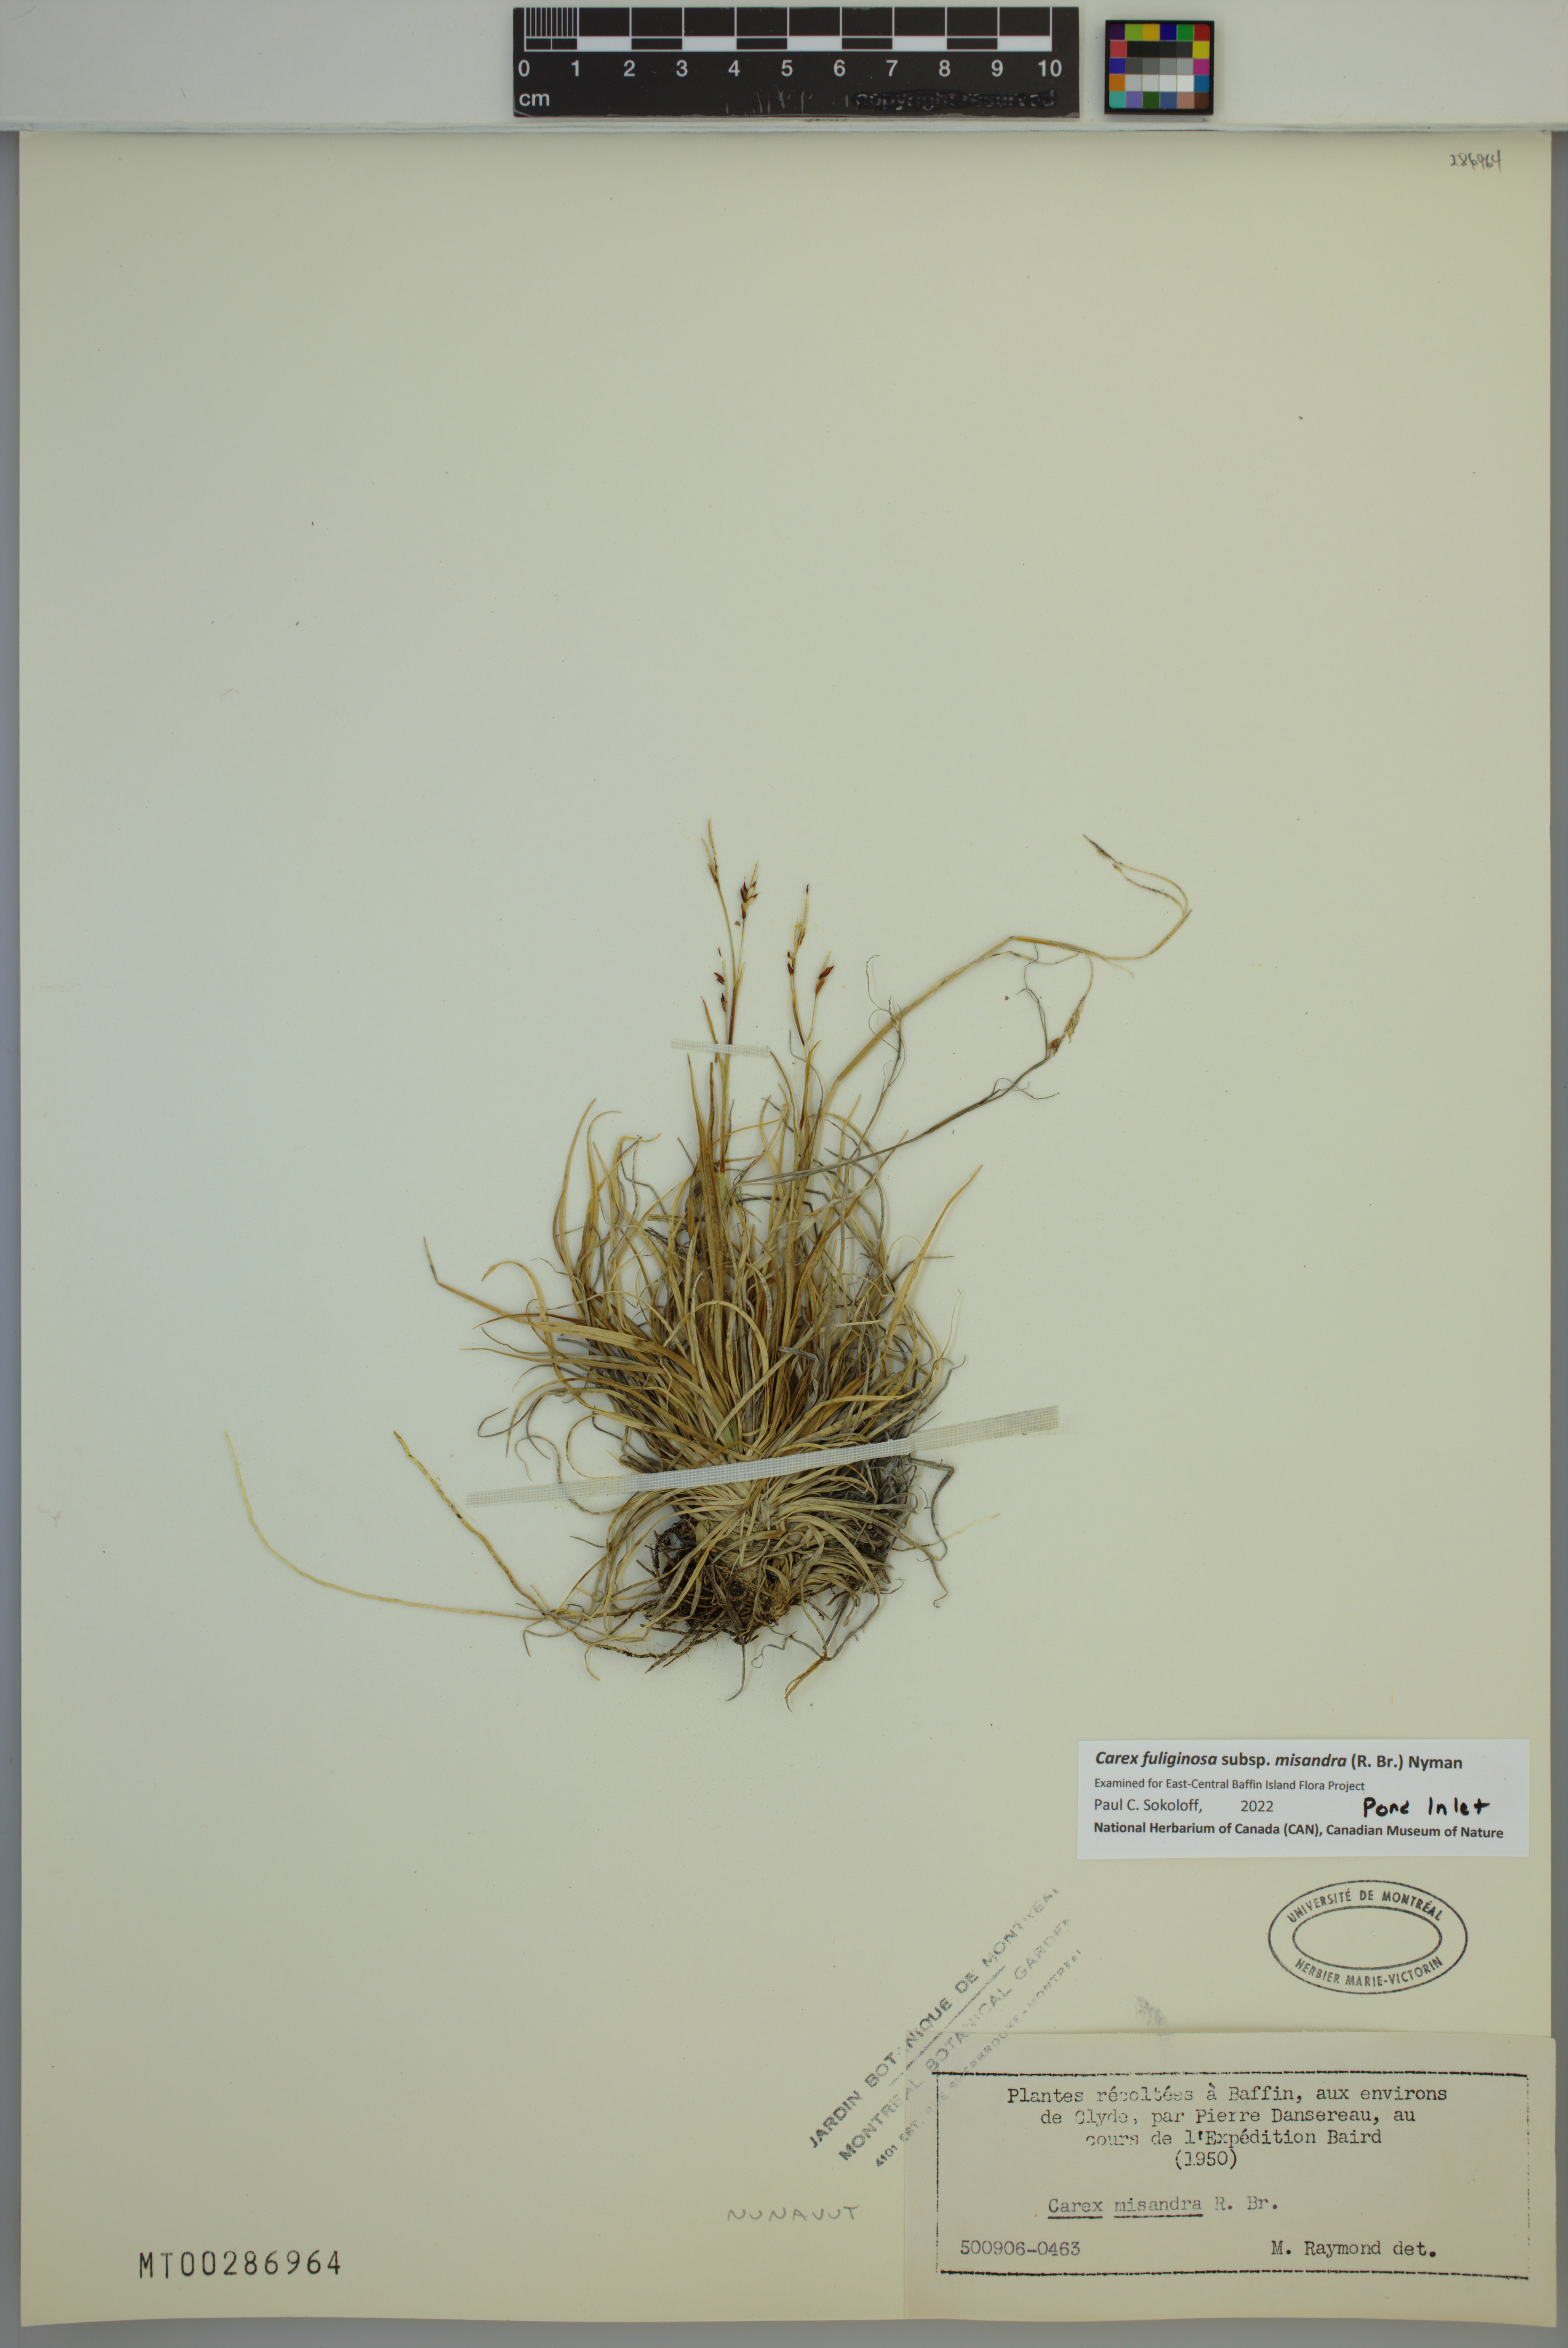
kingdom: Plantae
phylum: Tracheophyta
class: Liliopsida
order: Poales
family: Cyperaceae
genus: Carex
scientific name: Carex fuliginosa
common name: Few-flowered sedge
